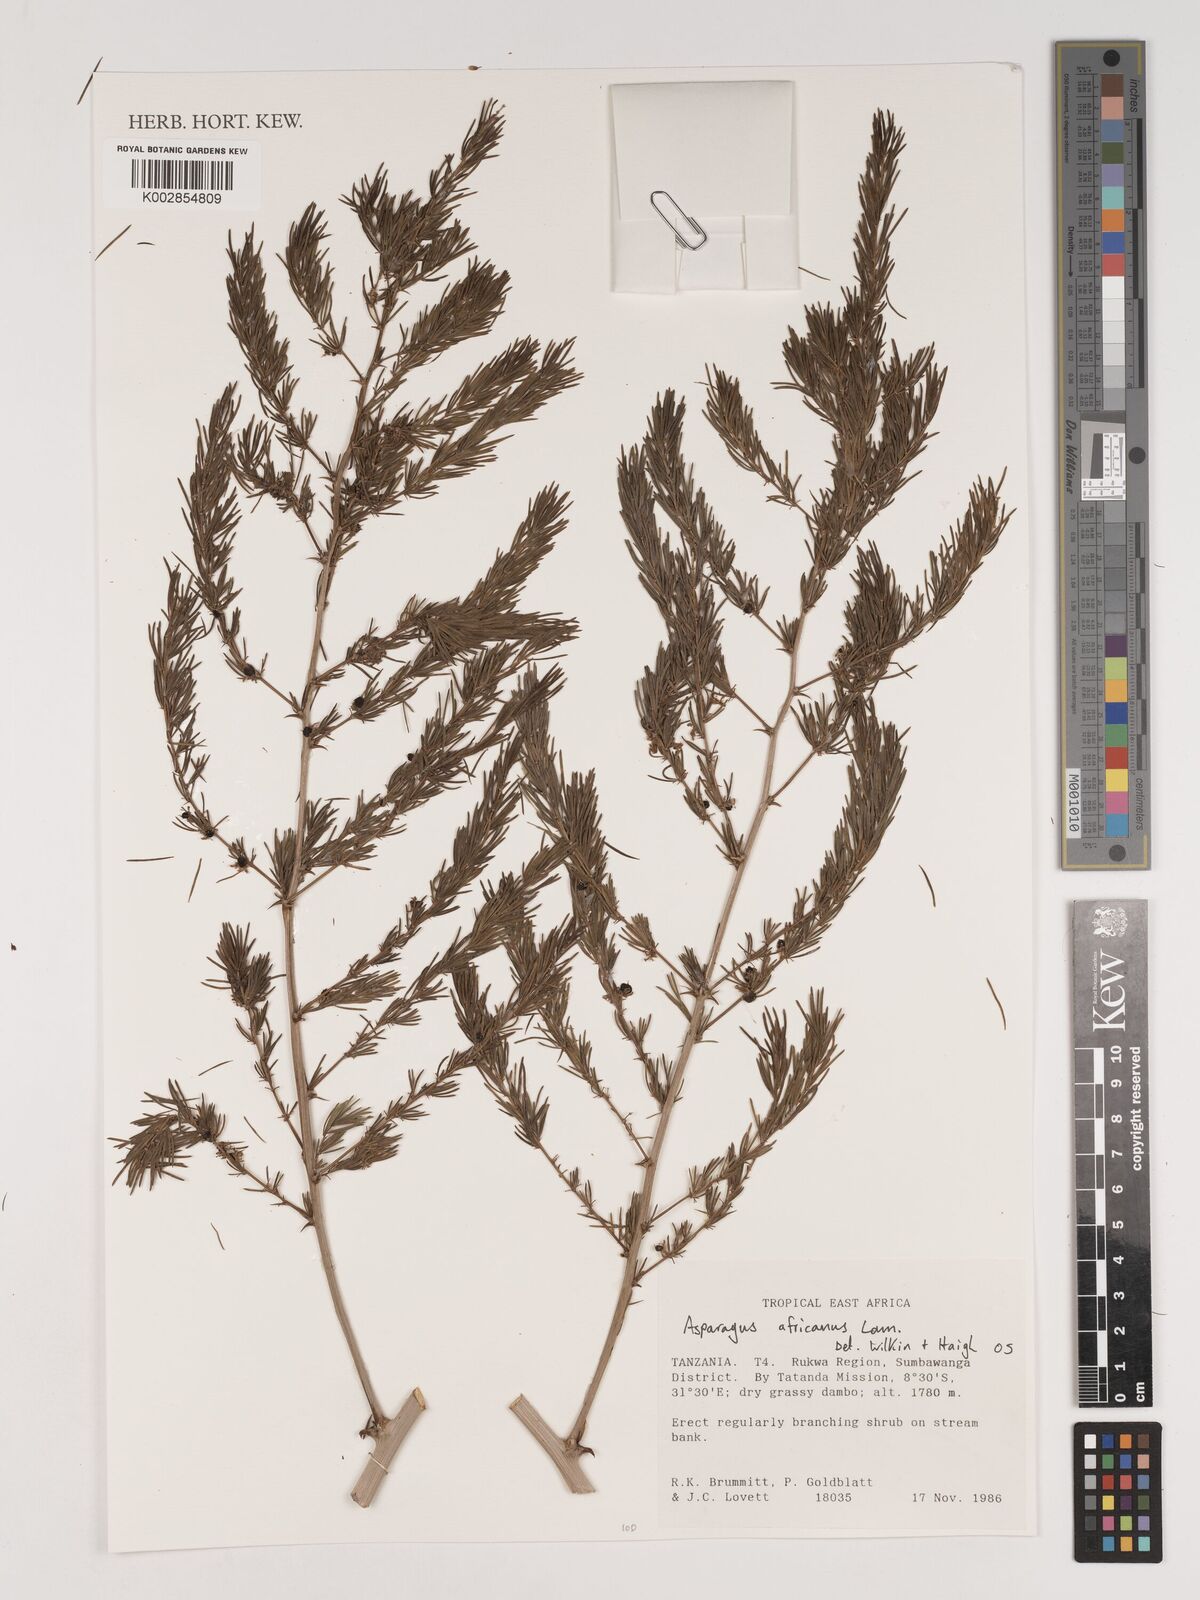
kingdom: Plantae
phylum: Tracheophyta
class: Liliopsida
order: Asparagales
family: Asparagaceae
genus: Asparagus
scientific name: Asparagus africanus
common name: Asparagus-fern
